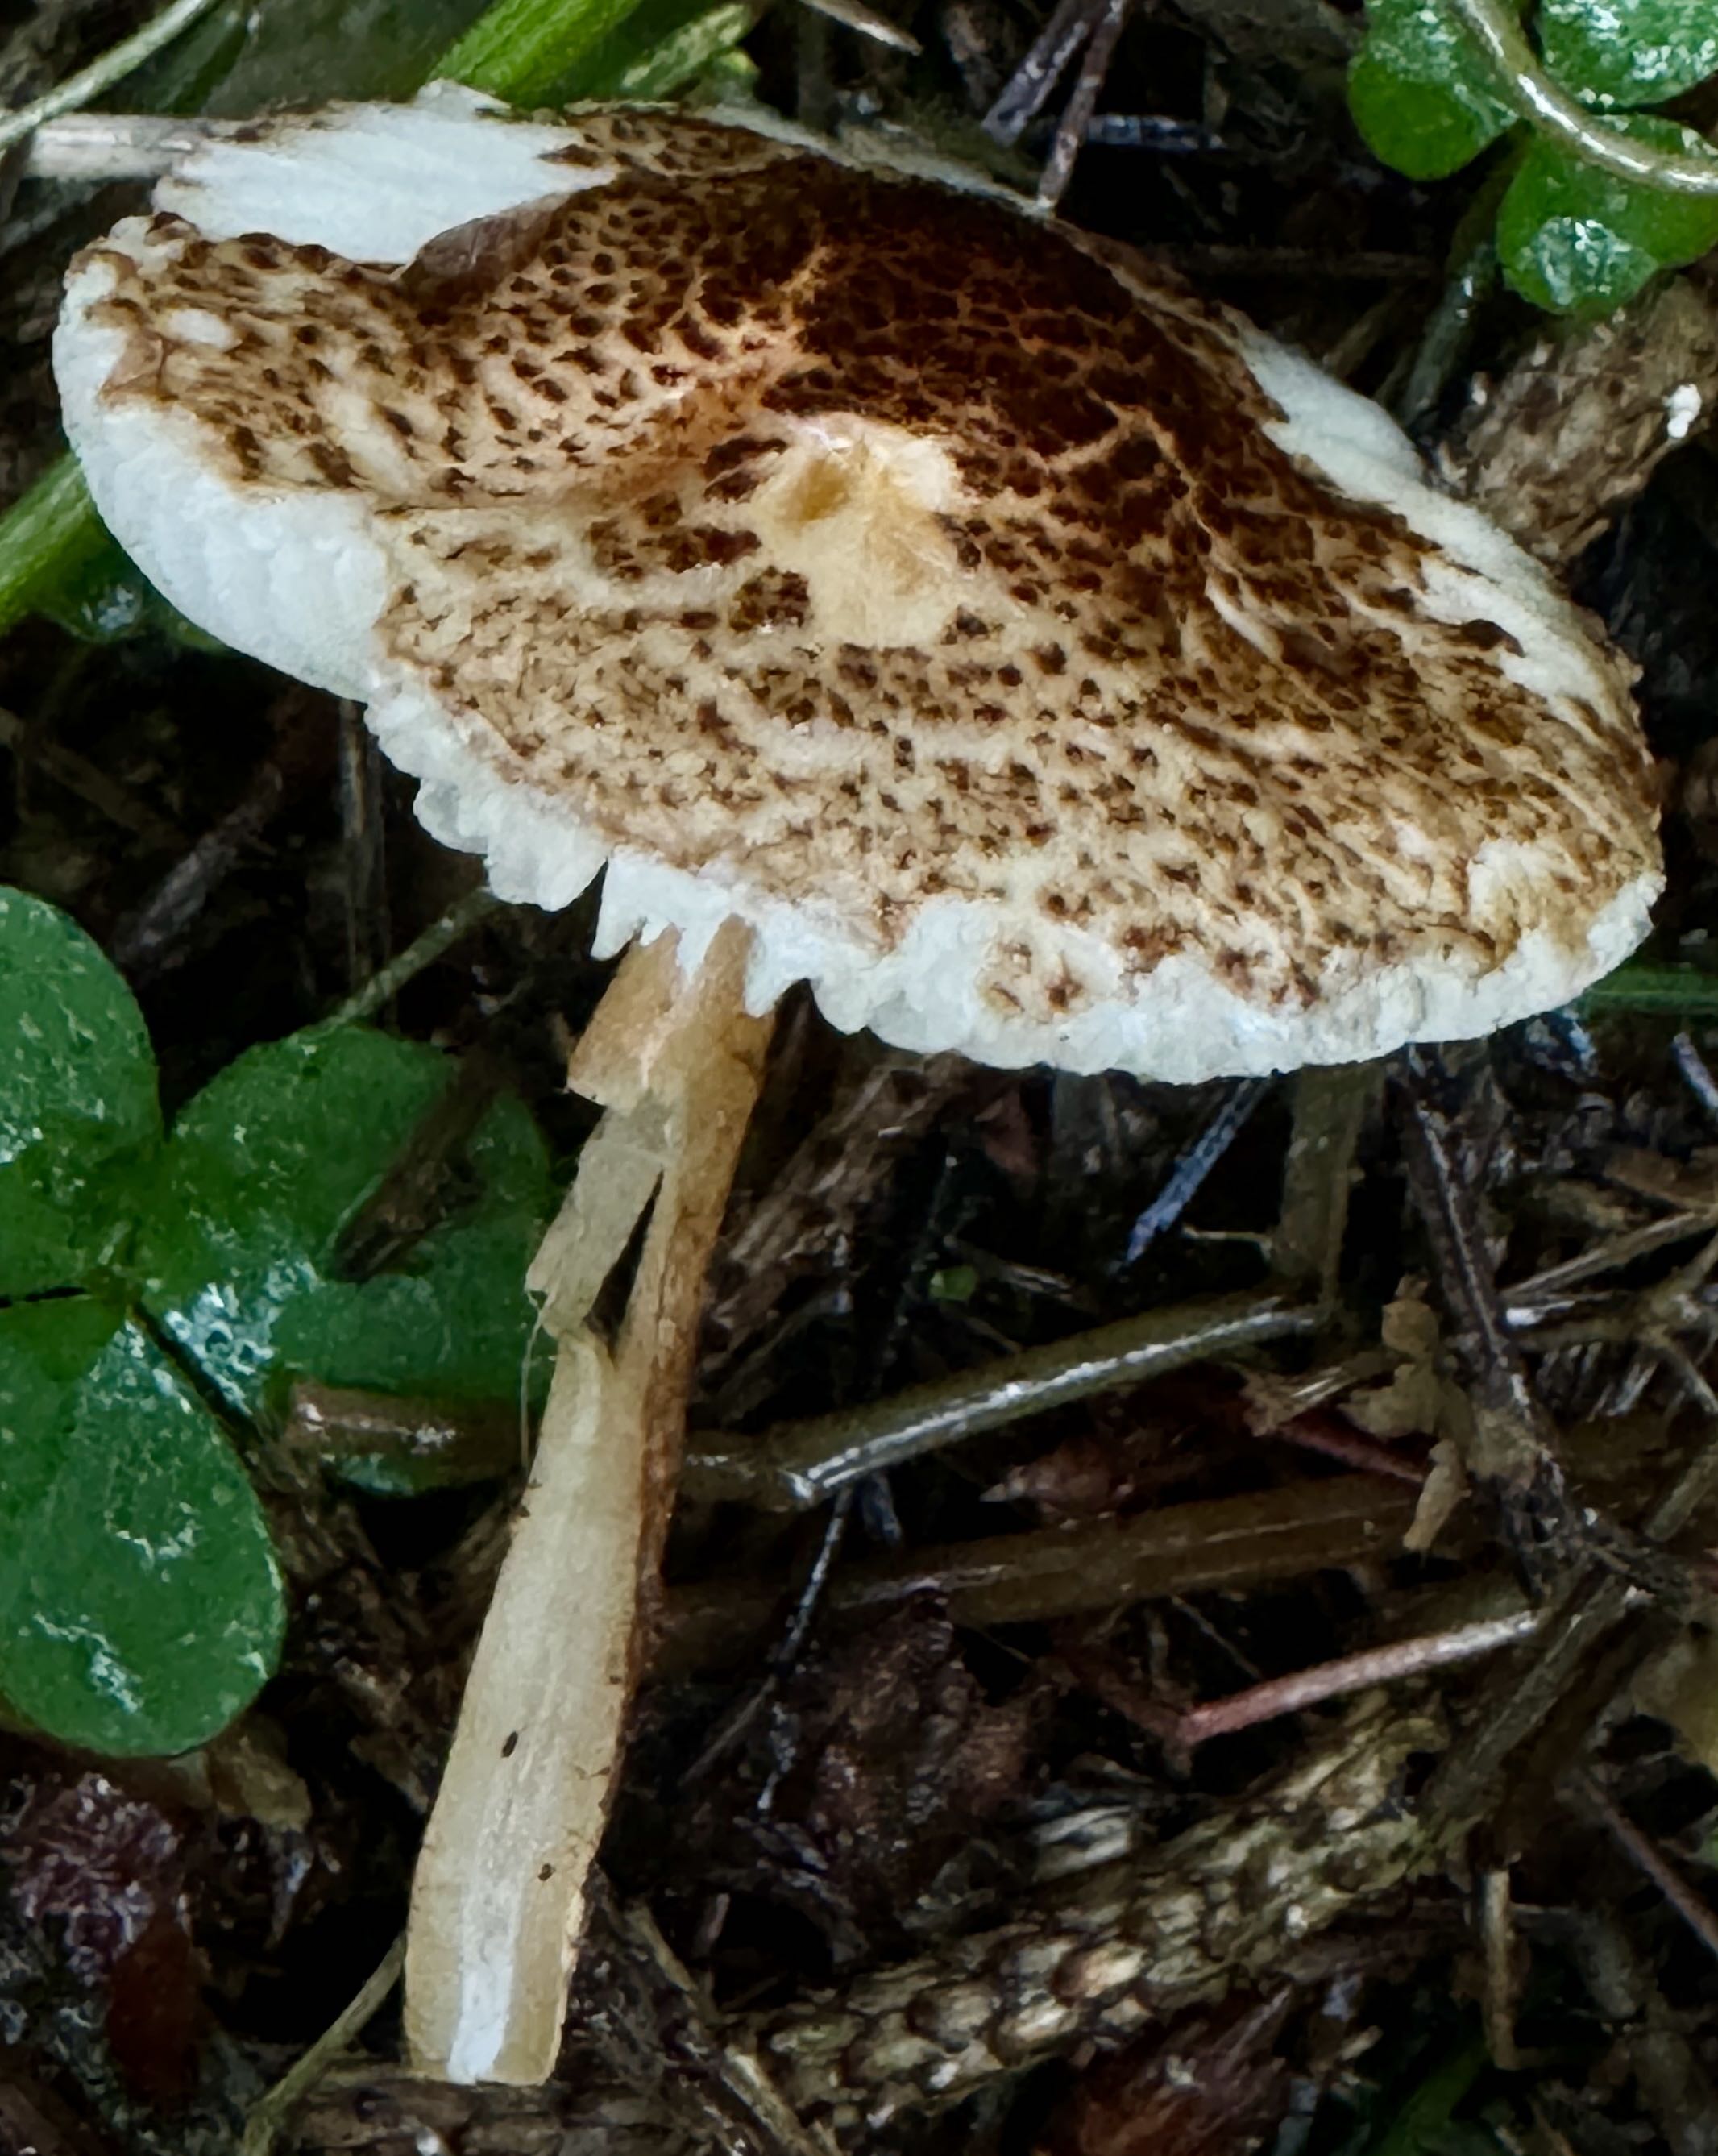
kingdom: Fungi
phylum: Basidiomycota
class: Agaricomycetes
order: Agaricales
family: Agaricaceae
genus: Lepiota
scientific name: Lepiota castanea
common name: kastaniebrun parasolhat
